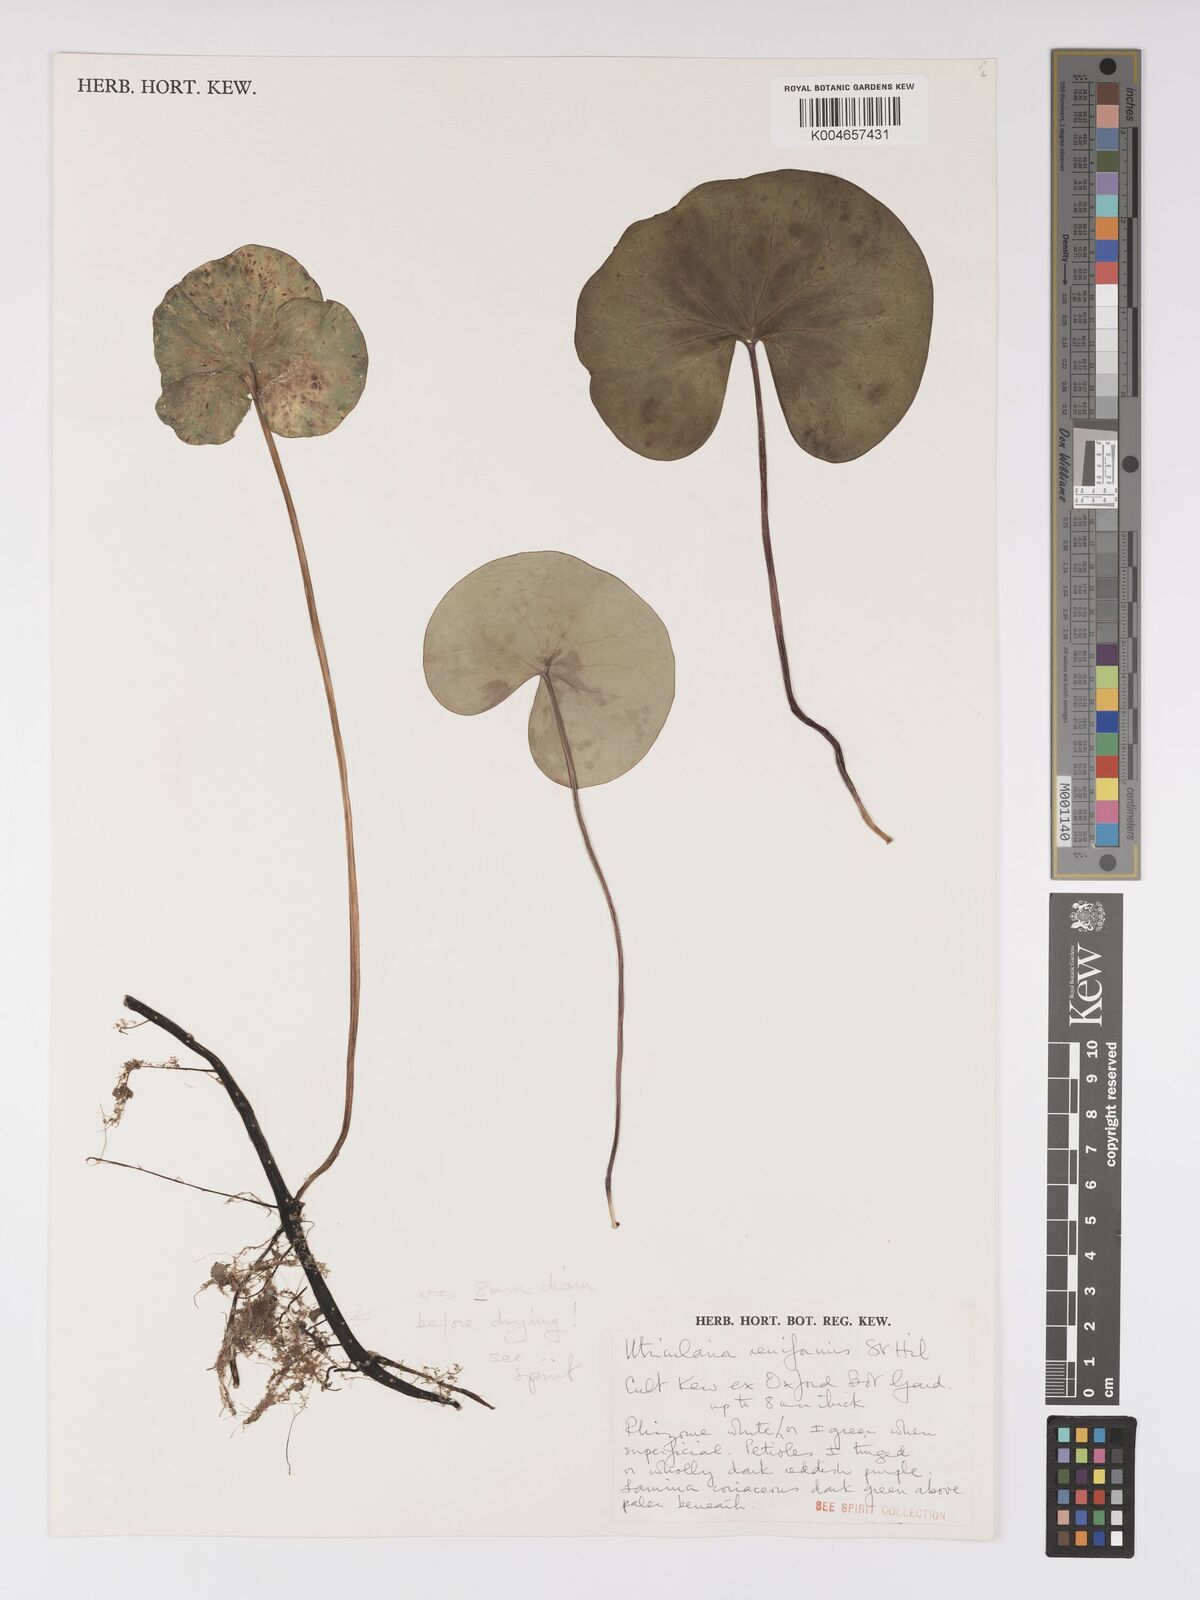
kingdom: Plantae
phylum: Tracheophyta
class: Magnoliopsida
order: Lamiales
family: Lentibulariaceae
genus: Utricularia
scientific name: Utricularia reniformis
